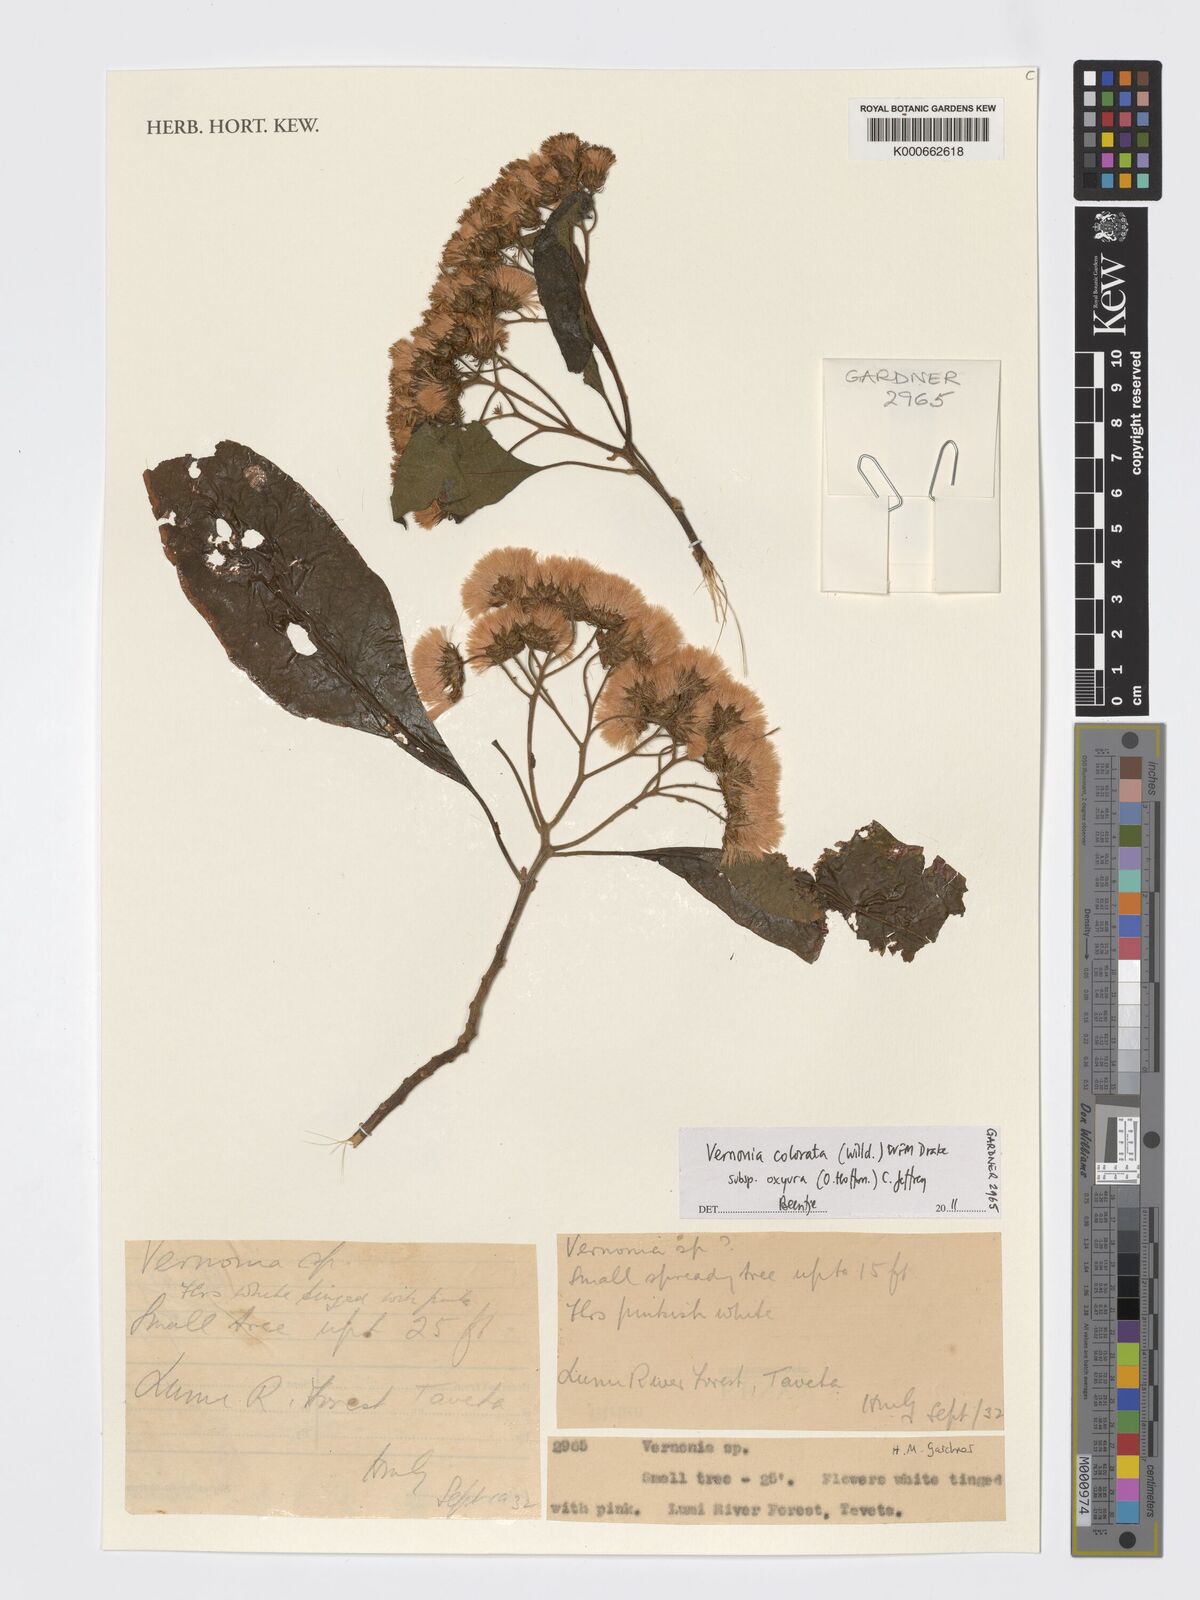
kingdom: Plantae
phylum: Tracheophyta
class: Magnoliopsida
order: Asterales
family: Asteraceae
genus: Vernonia
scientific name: Vernonia colorata
